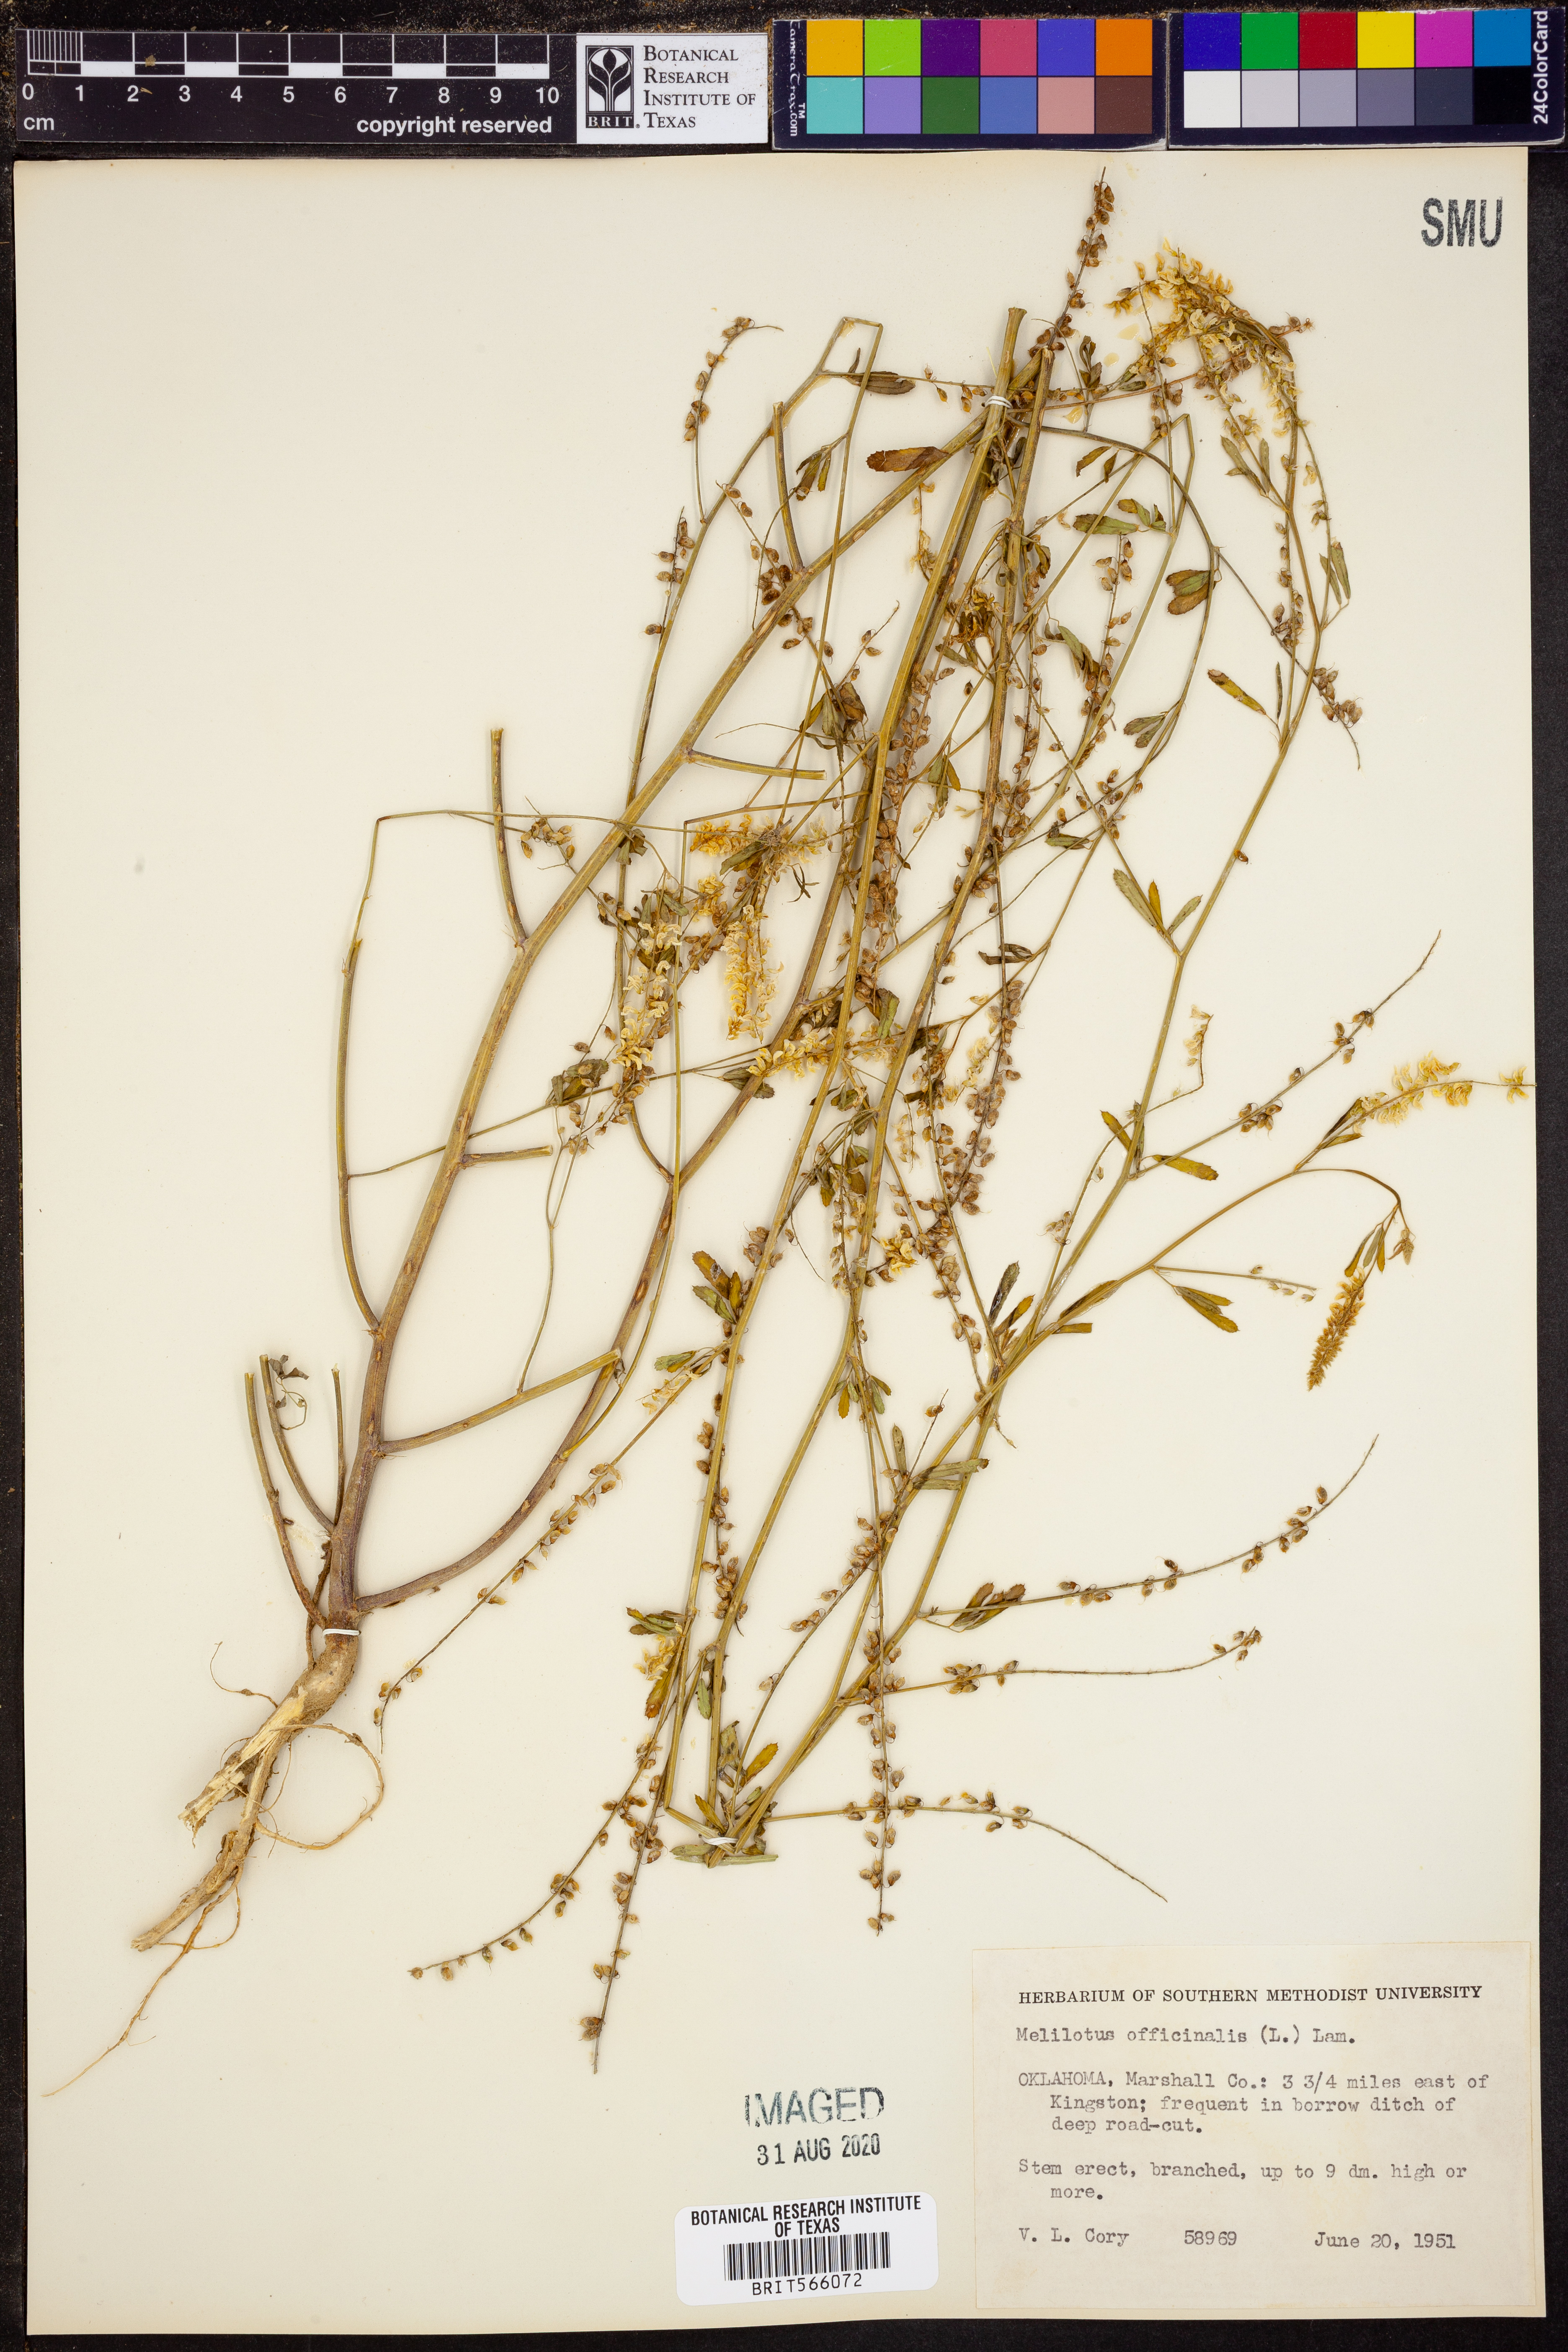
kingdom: Plantae
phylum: Tracheophyta
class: Magnoliopsida
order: Fabales
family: Fabaceae
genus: Melilotus
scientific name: Melilotus officinalis
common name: Sweetclover
